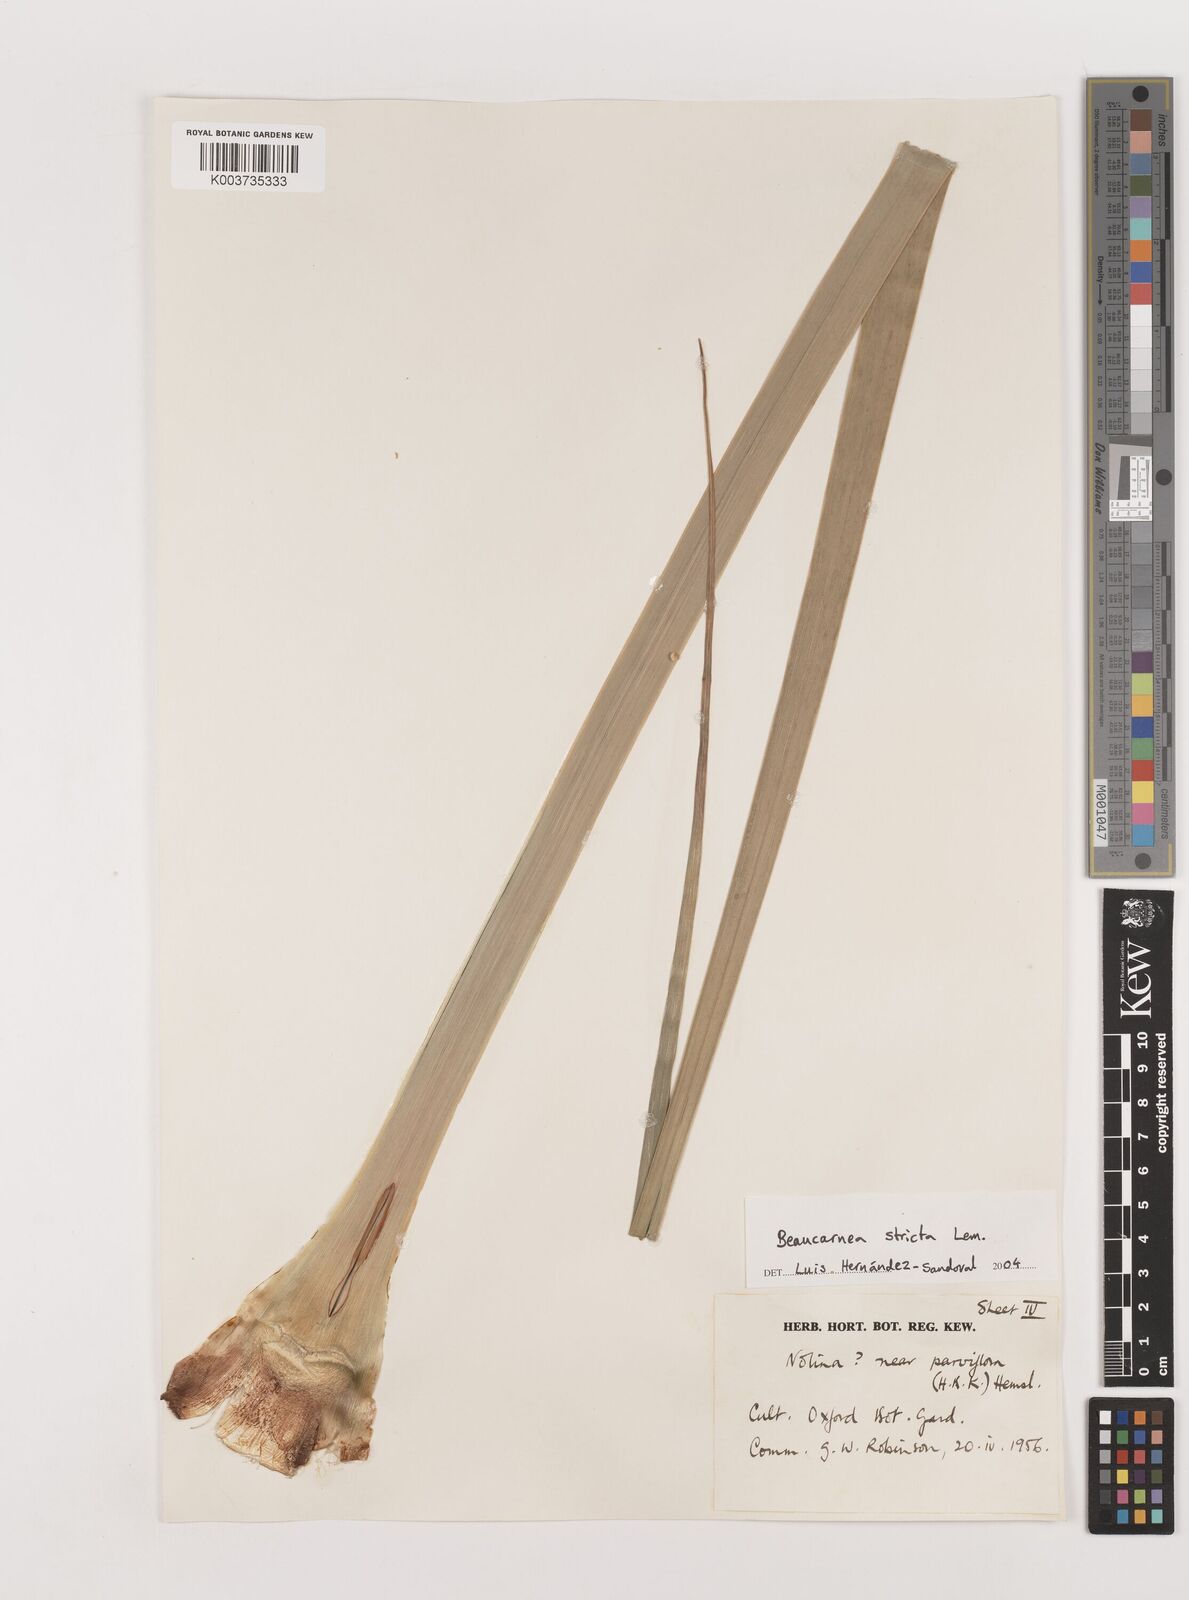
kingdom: Plantae
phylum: Tracheophyta
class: Liliopsida
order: Asparagales
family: Asparagaceae
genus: Beaucarnea
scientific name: Beaucarnea stricta
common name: Bottle palm
